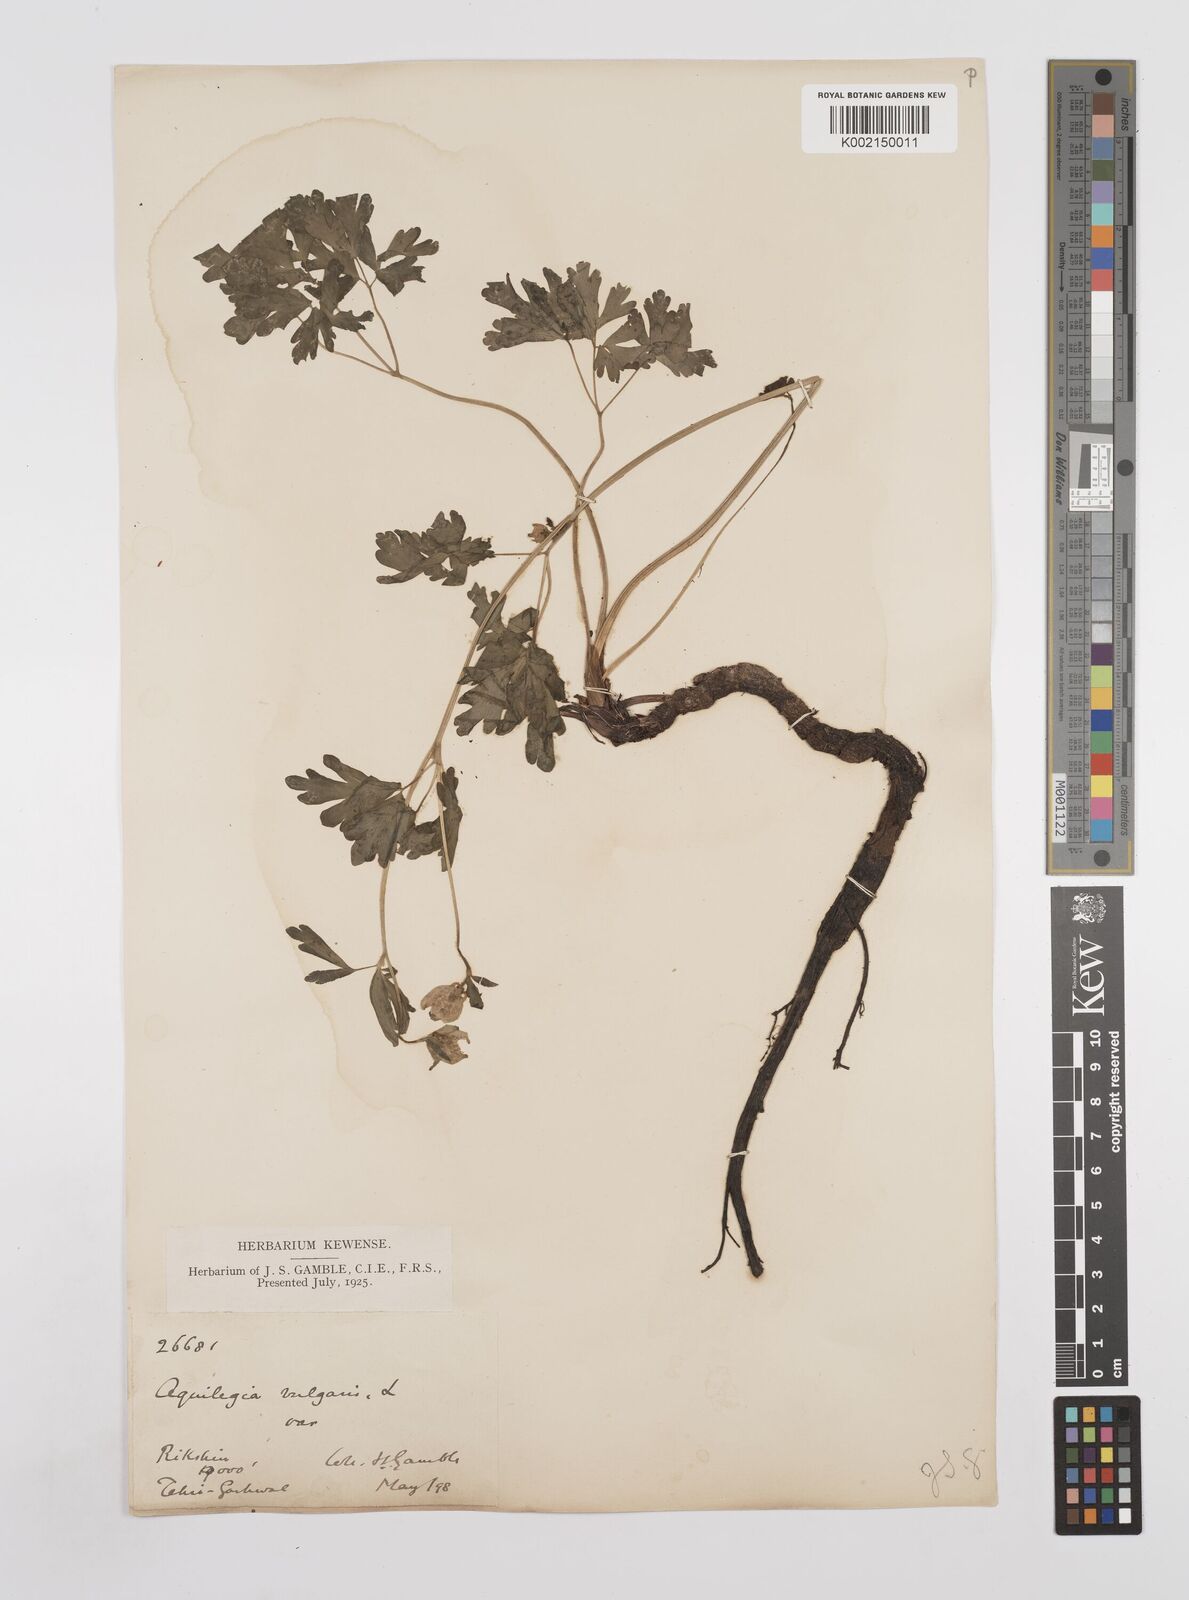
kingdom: Plantae
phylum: Tracheophyta
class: Magnoliopsida
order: Ranunculales
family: Ranunculaceae
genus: Aquilegia
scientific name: Aquilegia pubiflora
